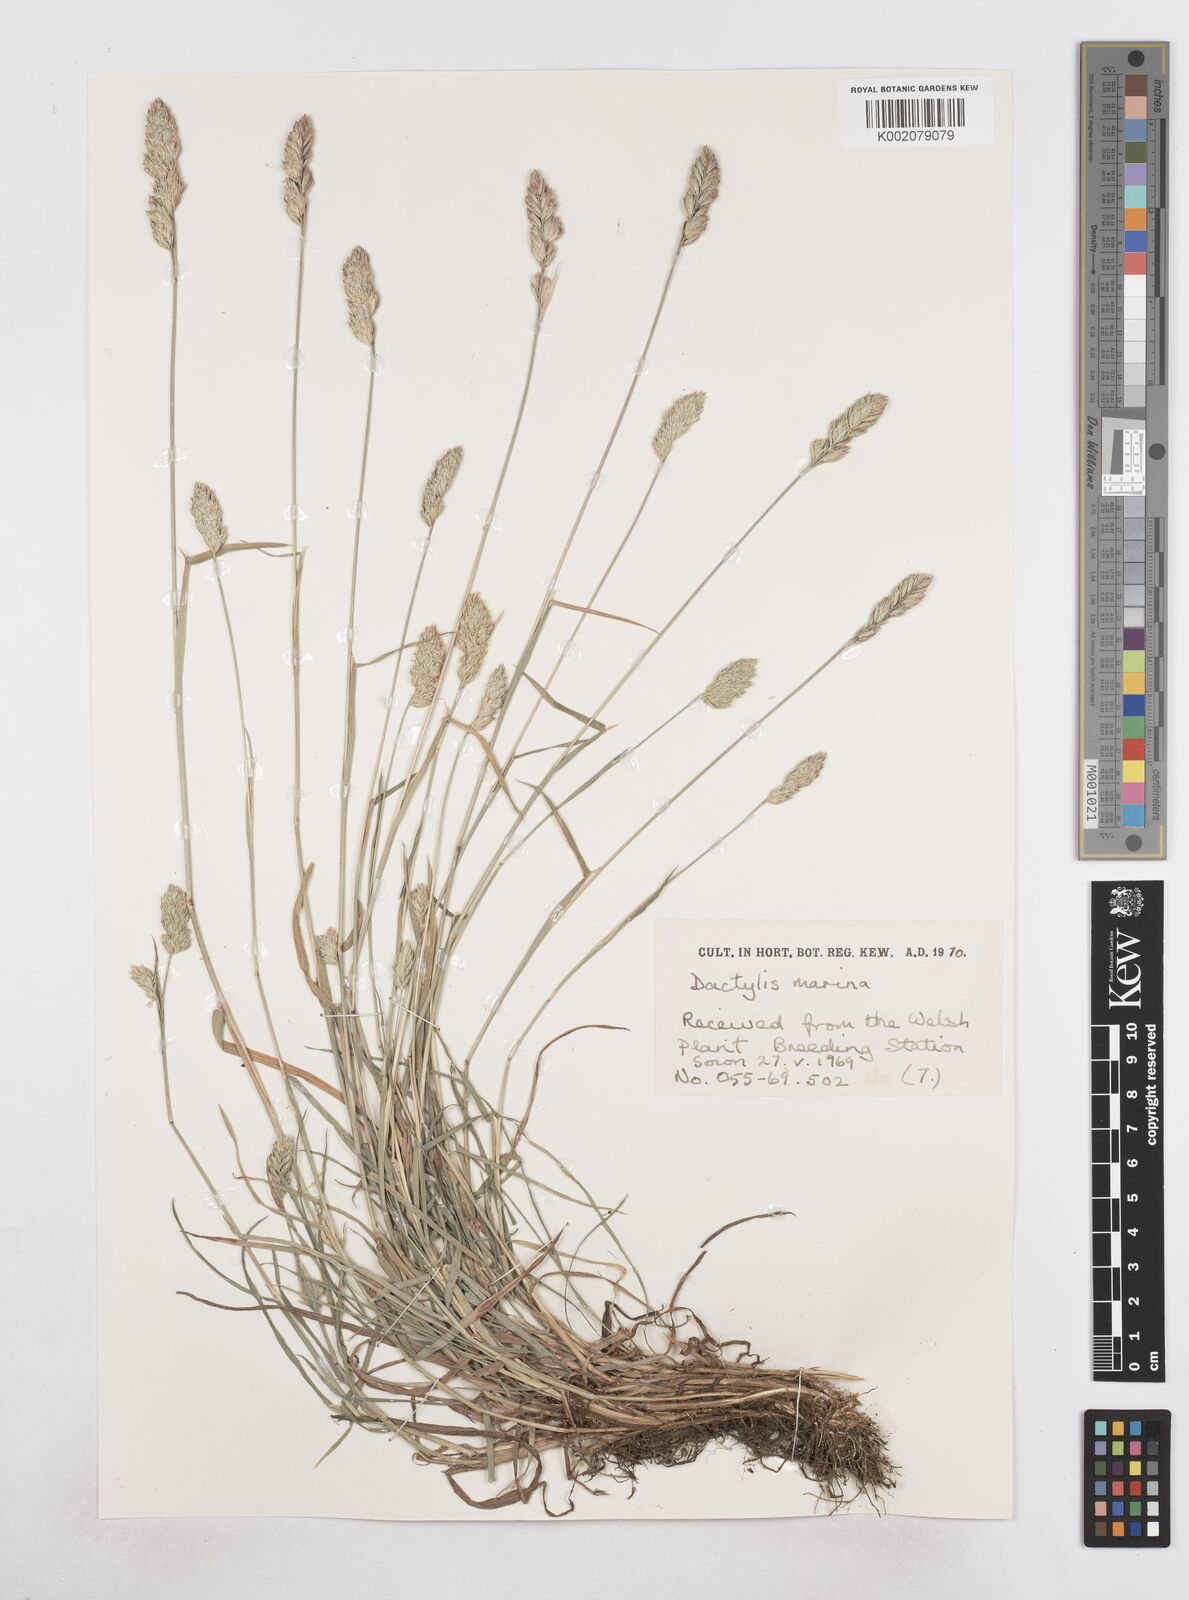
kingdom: Plantae
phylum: Tracheophyta
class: Liliopsida
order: Poales
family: Poaceae
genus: Dactylis
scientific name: Dactylis glomerata
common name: Orchardgrass
